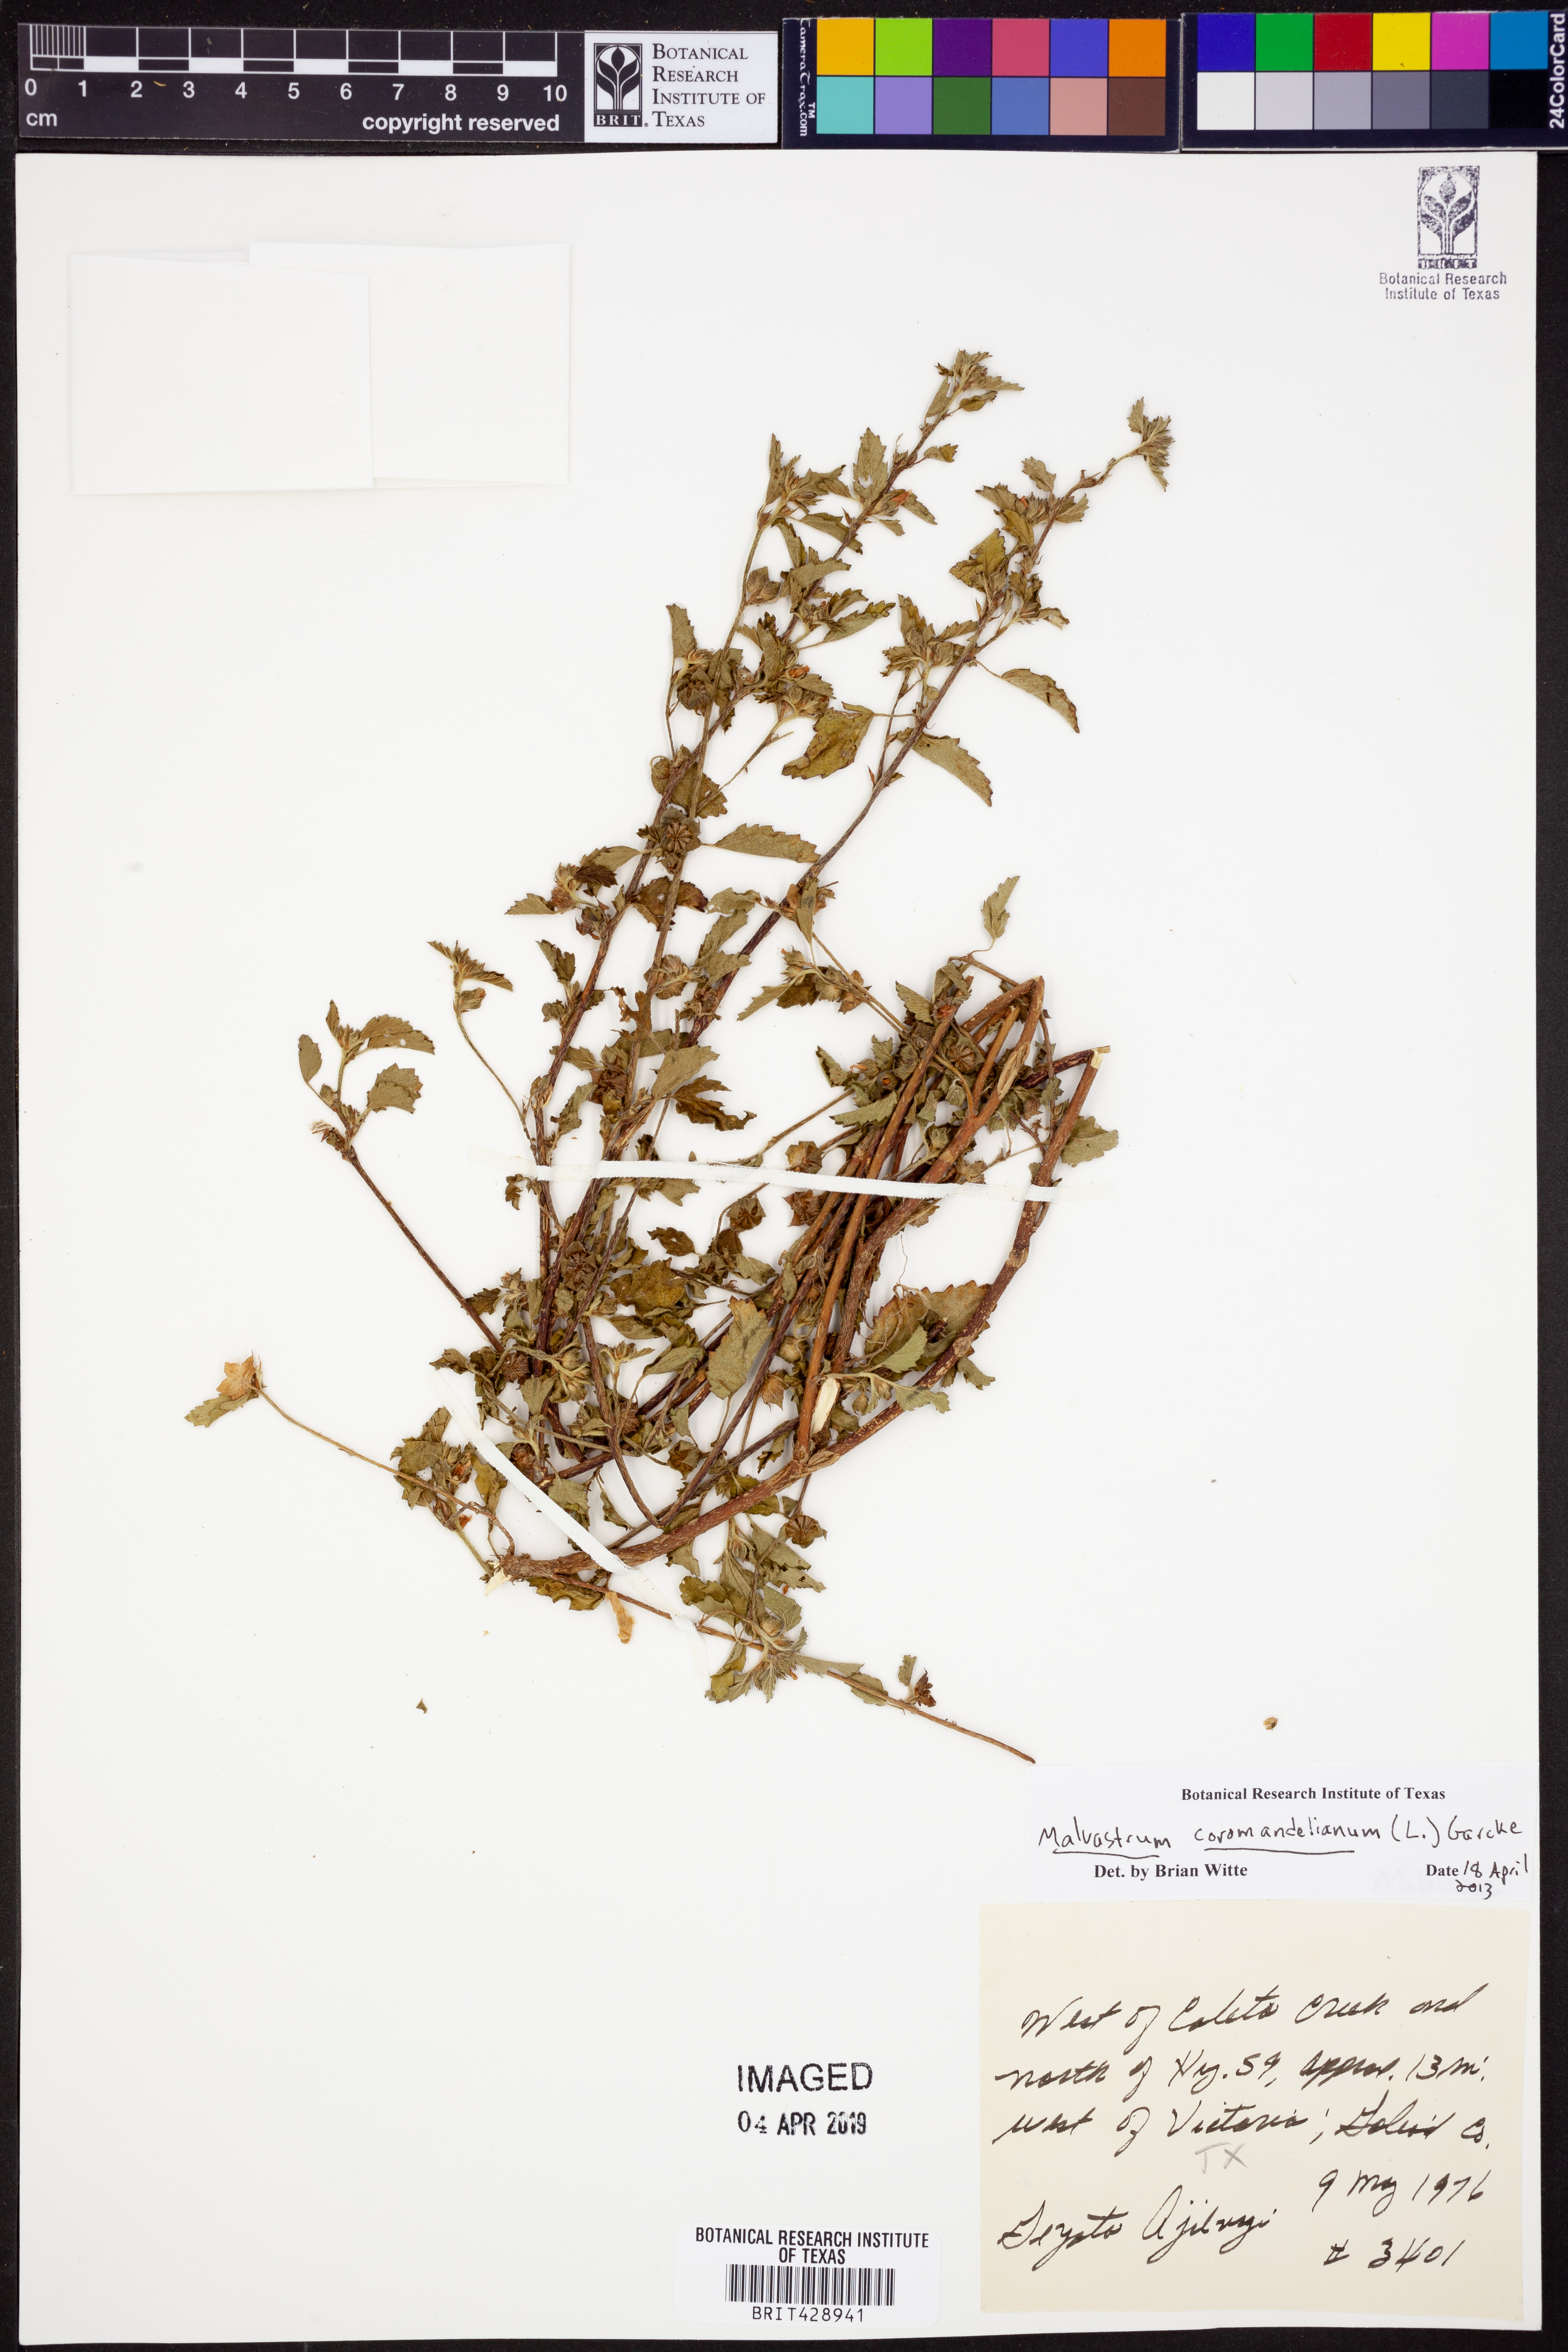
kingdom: Plantae
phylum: Tracheophyta
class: Magnoliopsida
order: Malvales
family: Malvaceae
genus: Malvastrum
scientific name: Malvastrum coromandelianum
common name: Threelobe false mallow
